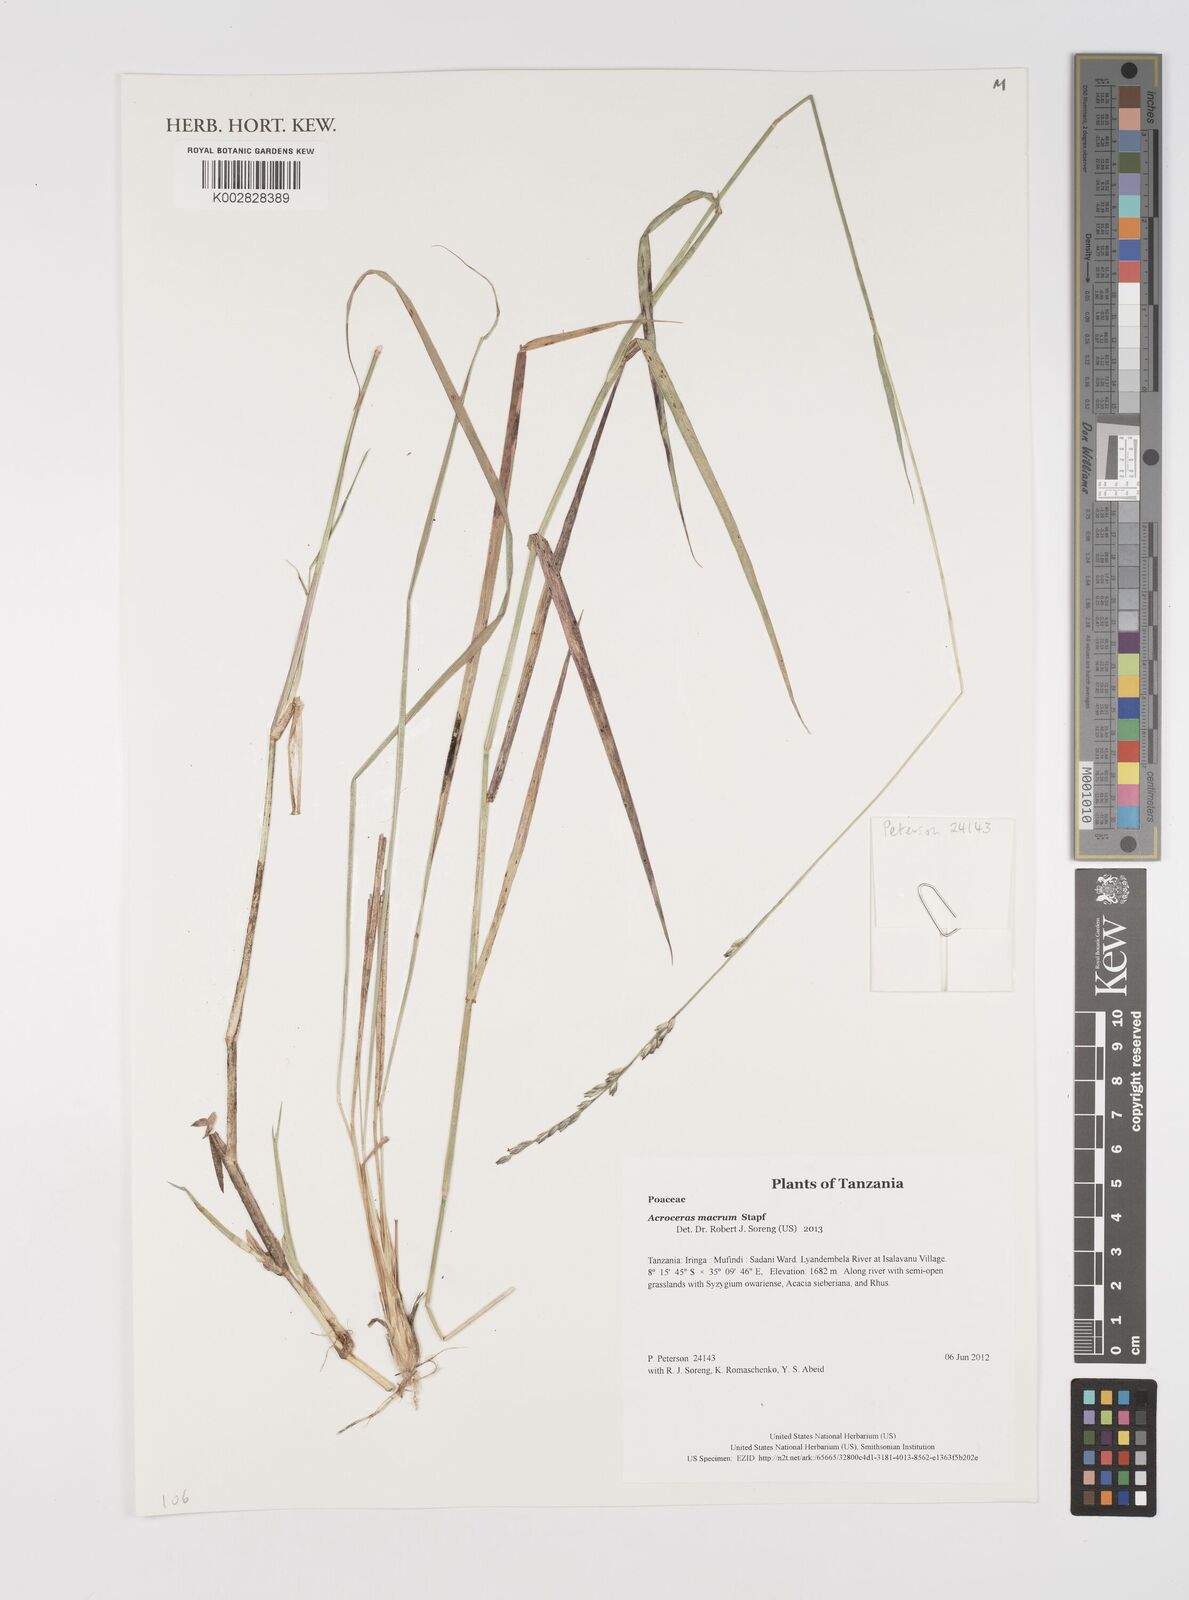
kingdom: Plantae
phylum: Tracheophyta
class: Liliopsida
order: Poales
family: Poaceae
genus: Acroceras
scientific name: Acroceras macrum
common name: Nyl grass
